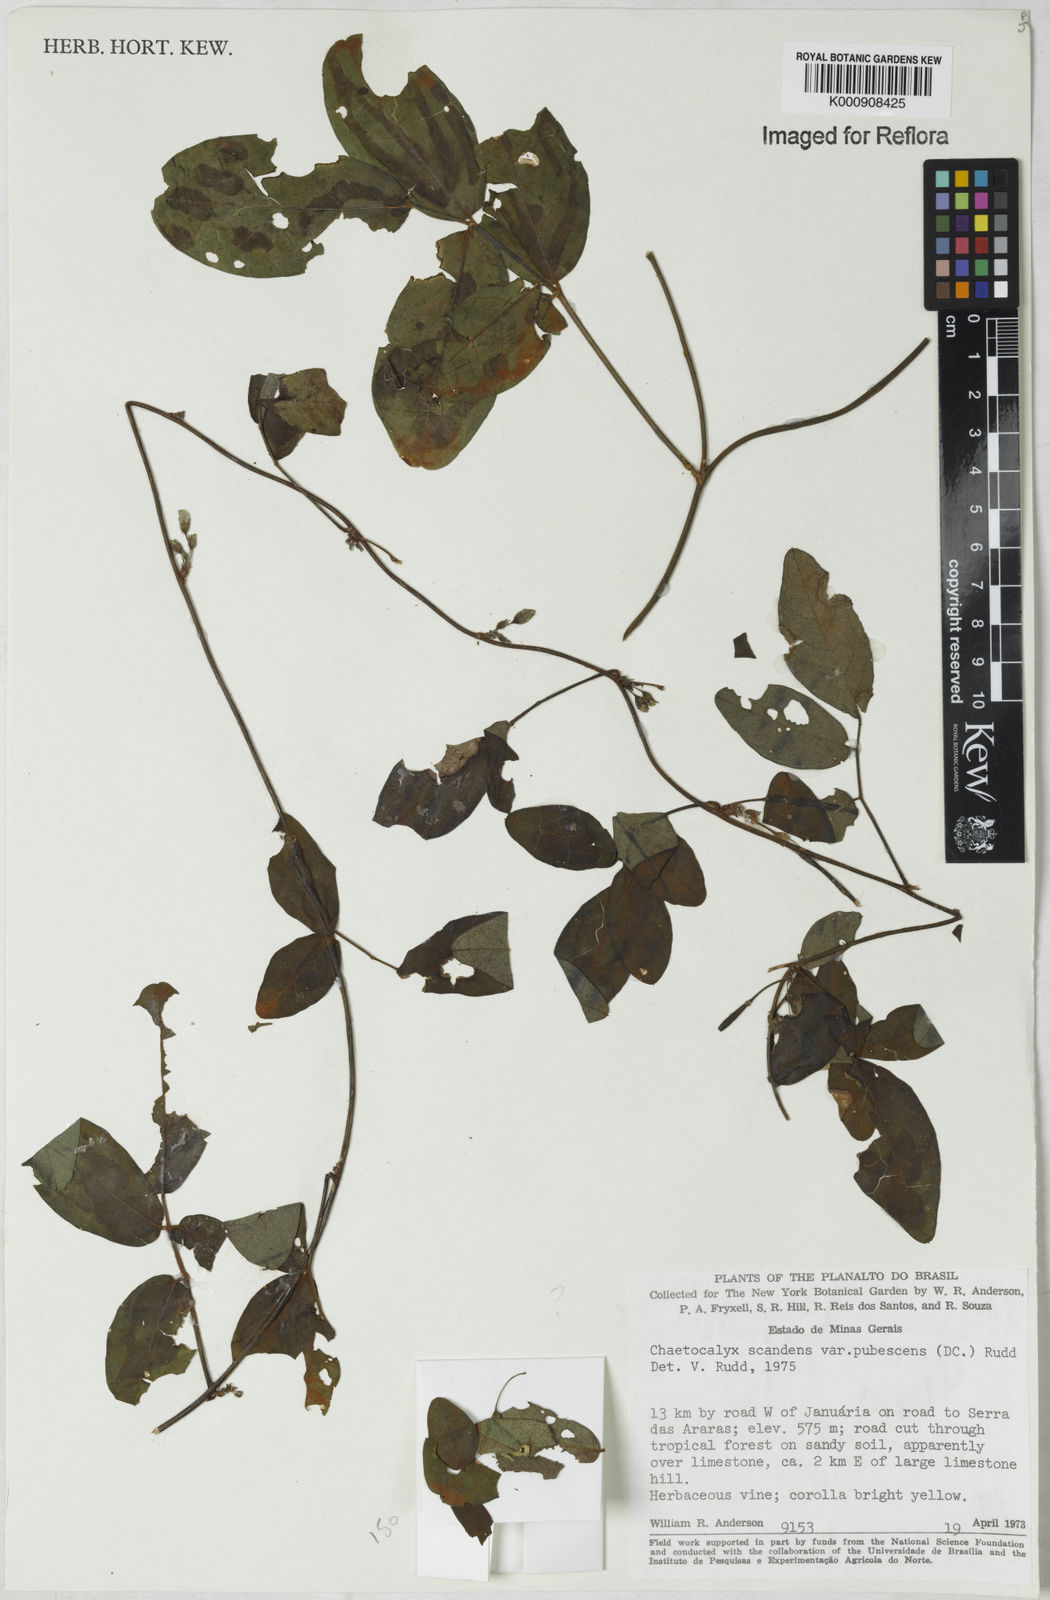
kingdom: Plantae
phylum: Tracheophyta
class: Magnoliopsida
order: Fabales
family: Fabaceae
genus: Nissolia
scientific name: Nissolia vincentina
